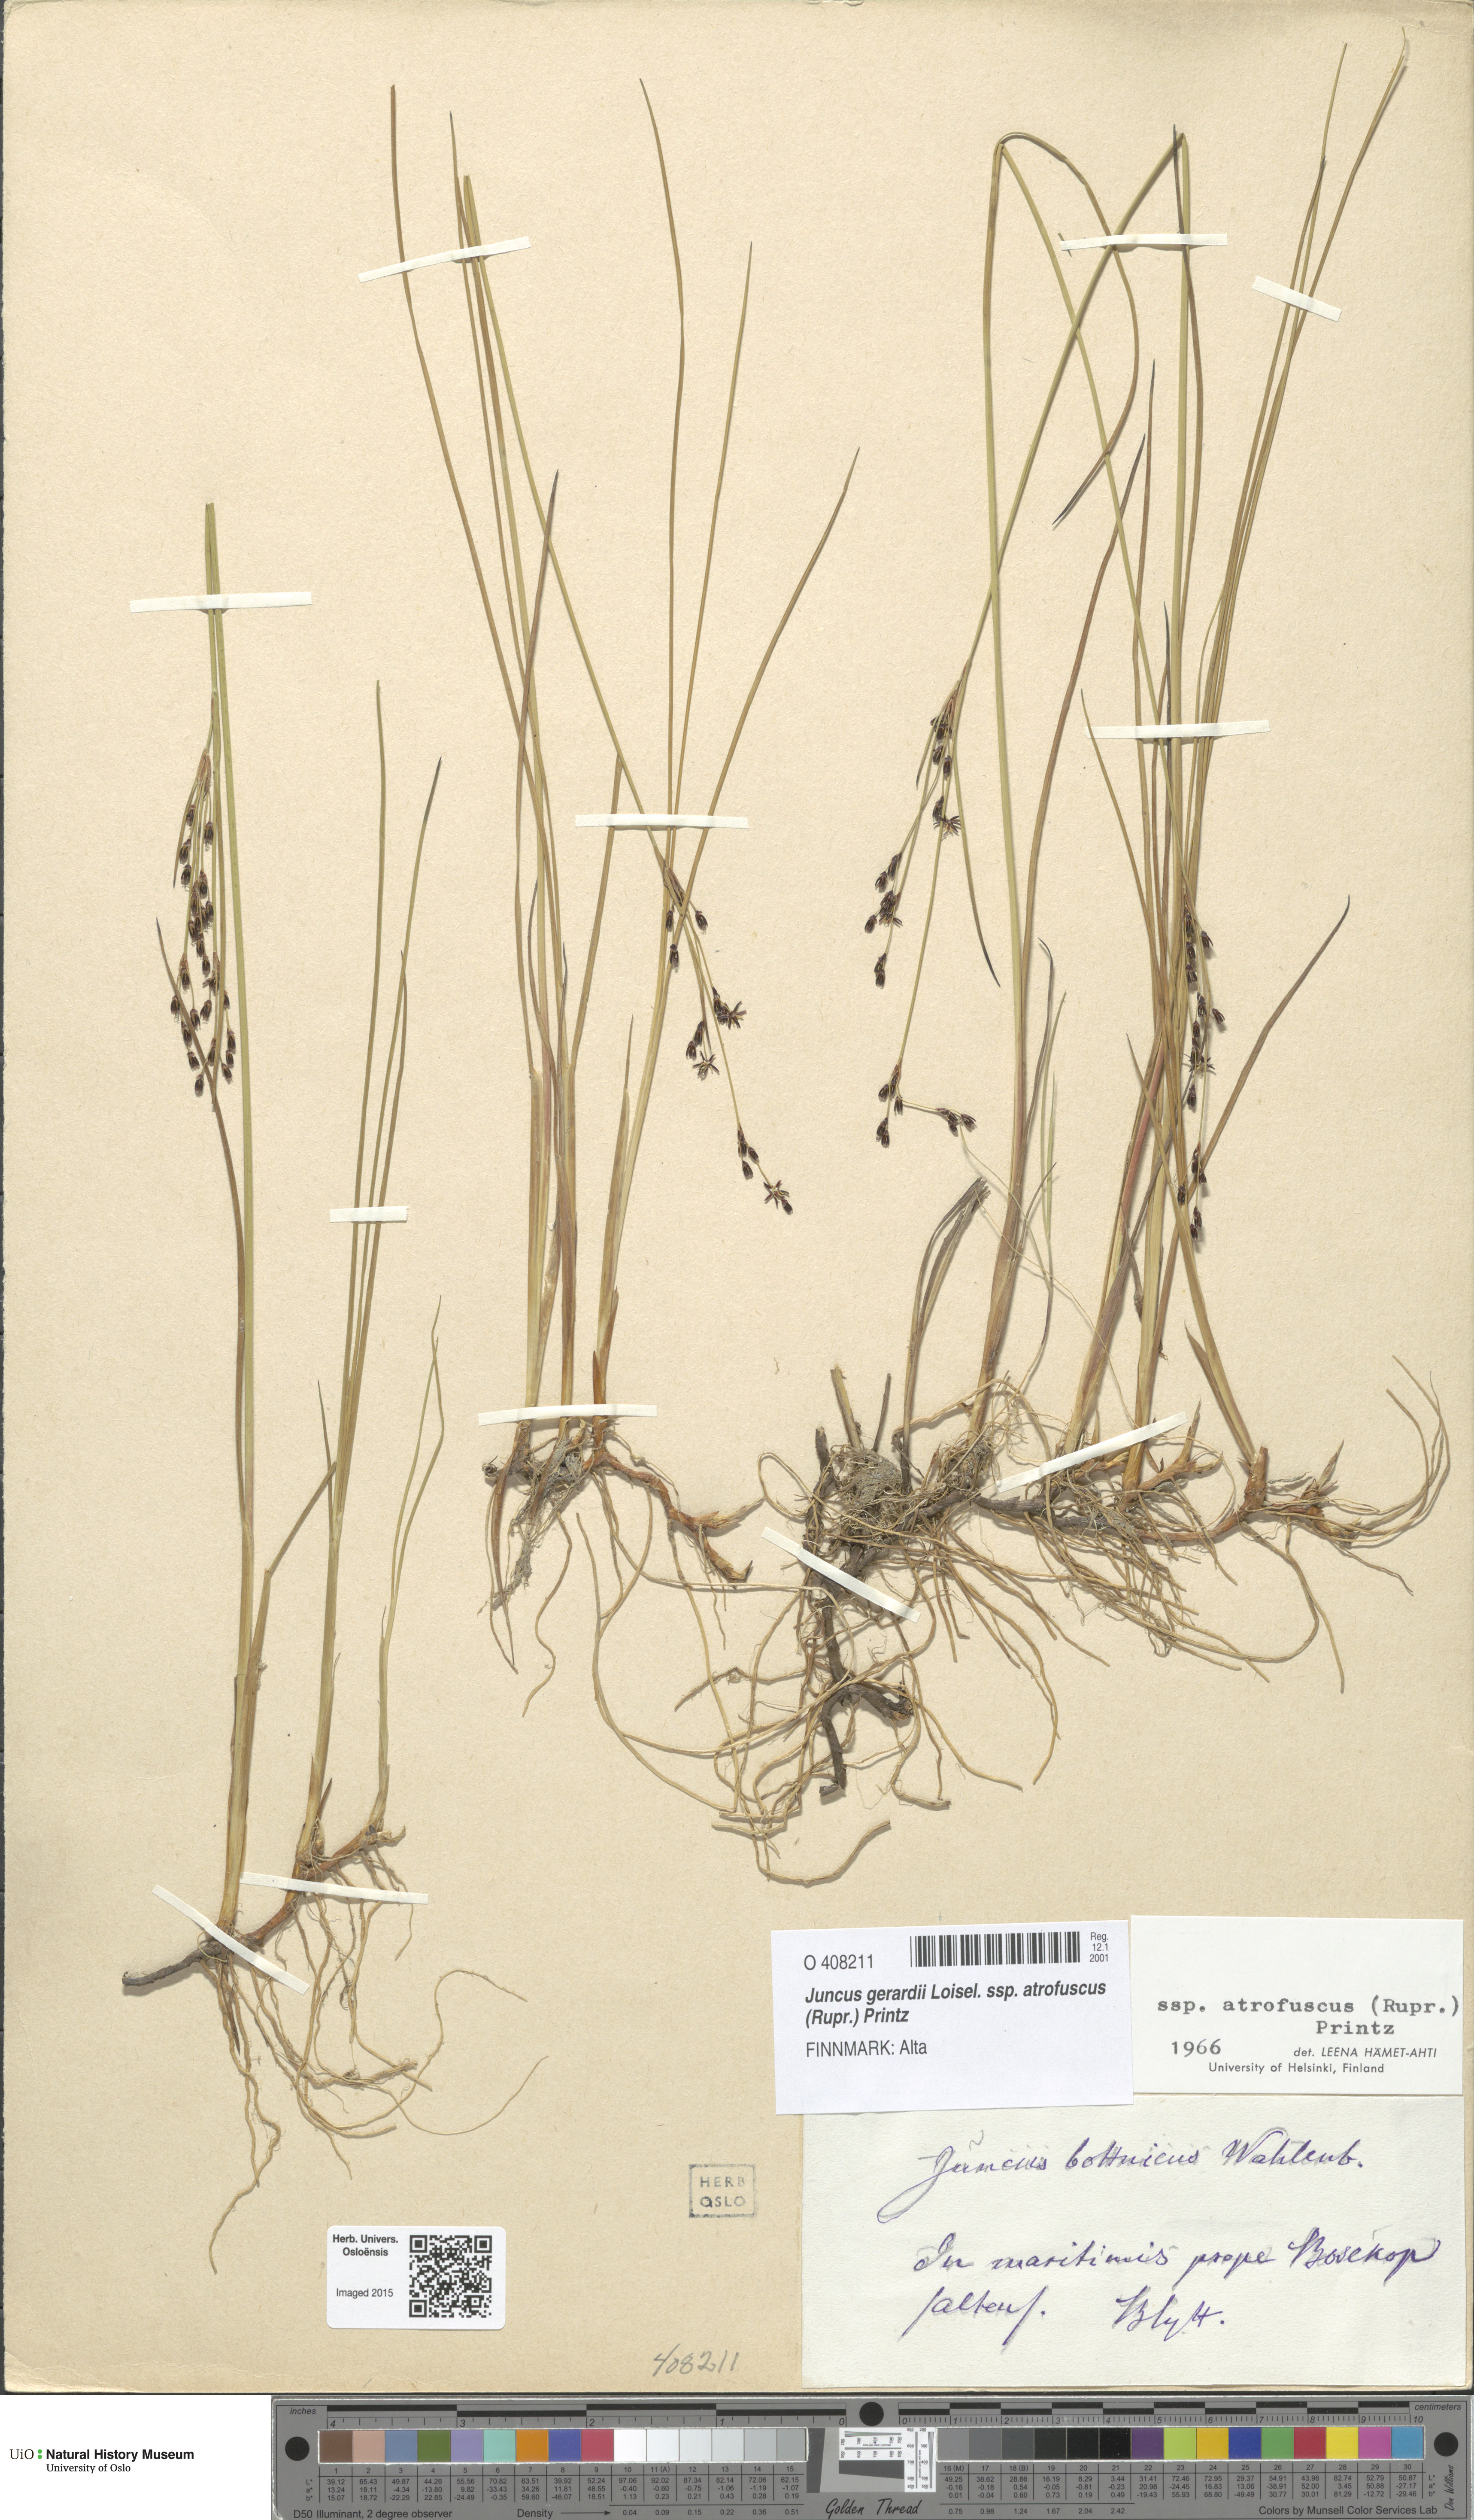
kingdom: Plantae
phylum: Tracheophyta
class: Liliopsida
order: Poales
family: Juncaceae
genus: Juncus
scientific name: Juncus gerardi
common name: Saltmarsh rush
